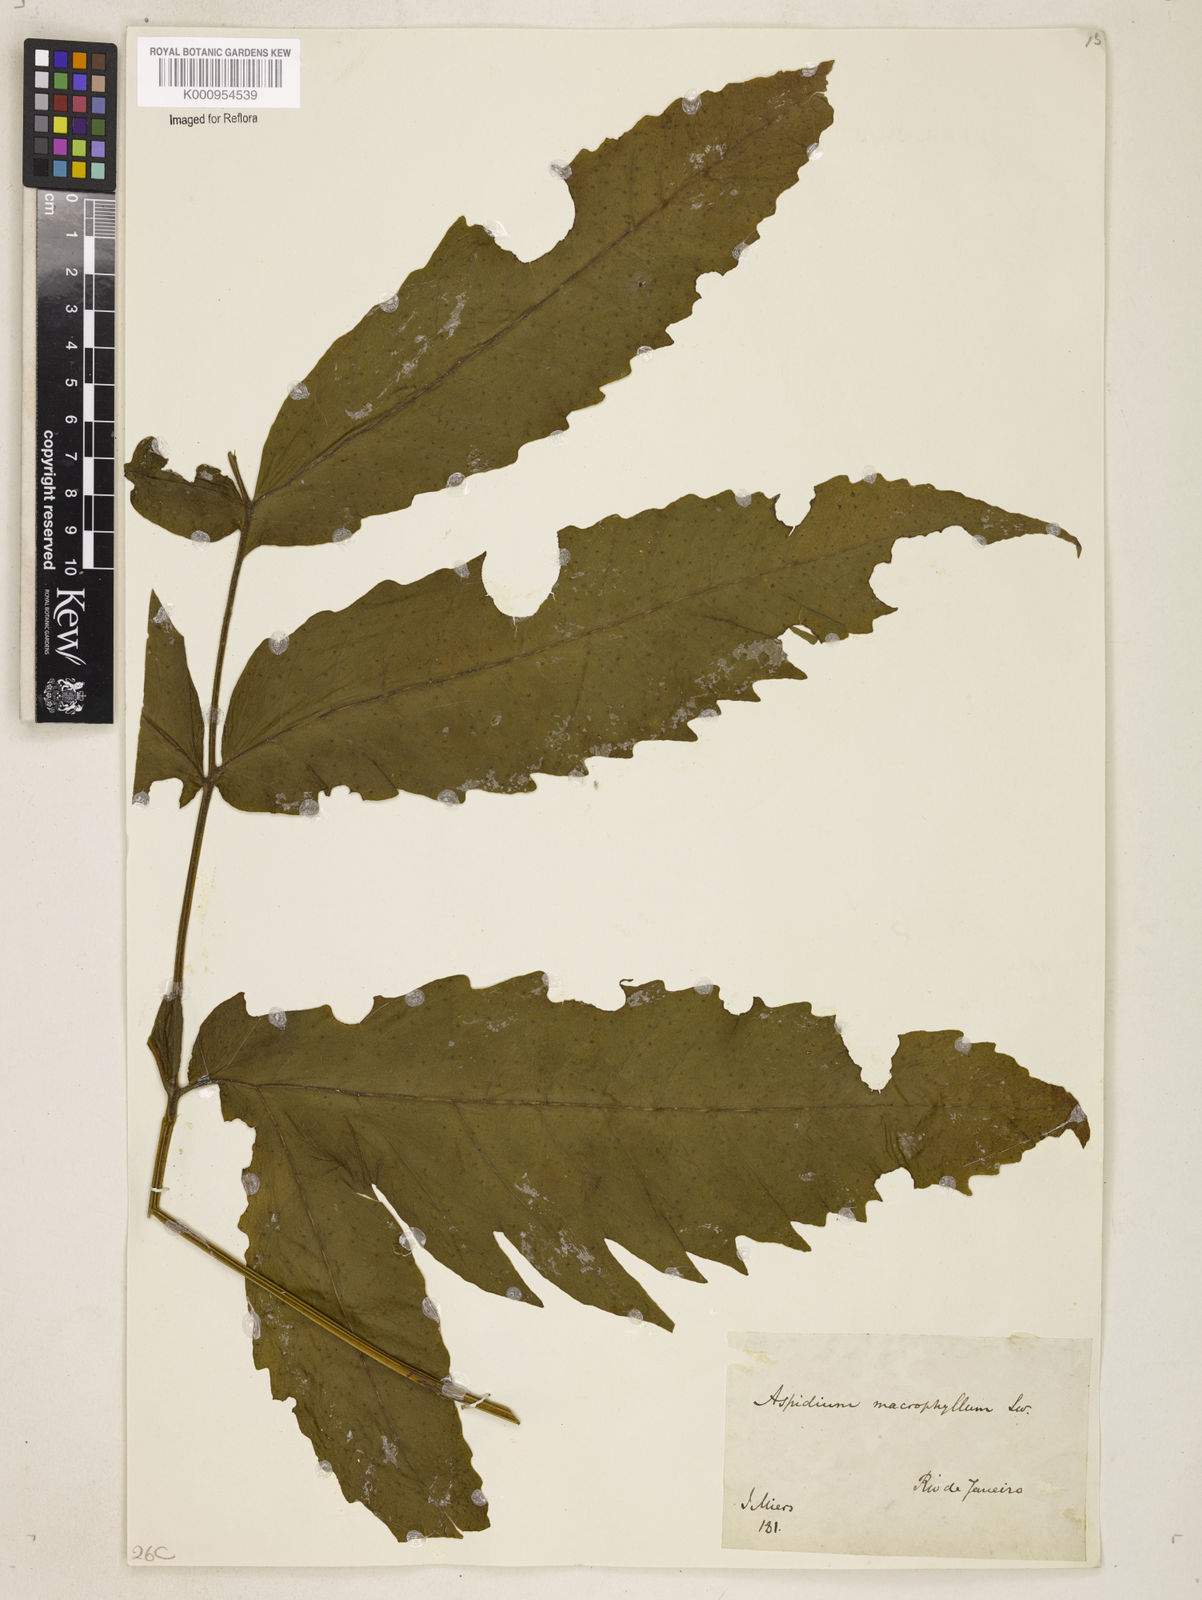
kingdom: Plantae
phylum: Tracheophyta
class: Polypodiopsida
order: Polypodiales
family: Tectariaceae
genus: Tectaria
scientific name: Tectaria incisa
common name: Incised halberd fern
